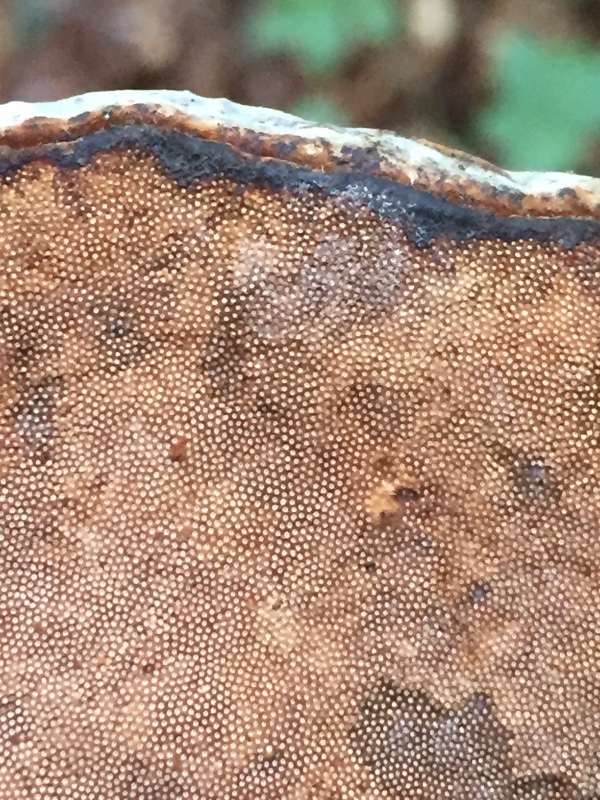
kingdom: Fungi
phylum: Basidiomycota
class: Agaricomycetes
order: Polyporales
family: Polyporaceae
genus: Fomes
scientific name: Fomes fomentarius
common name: tøndersvamp
